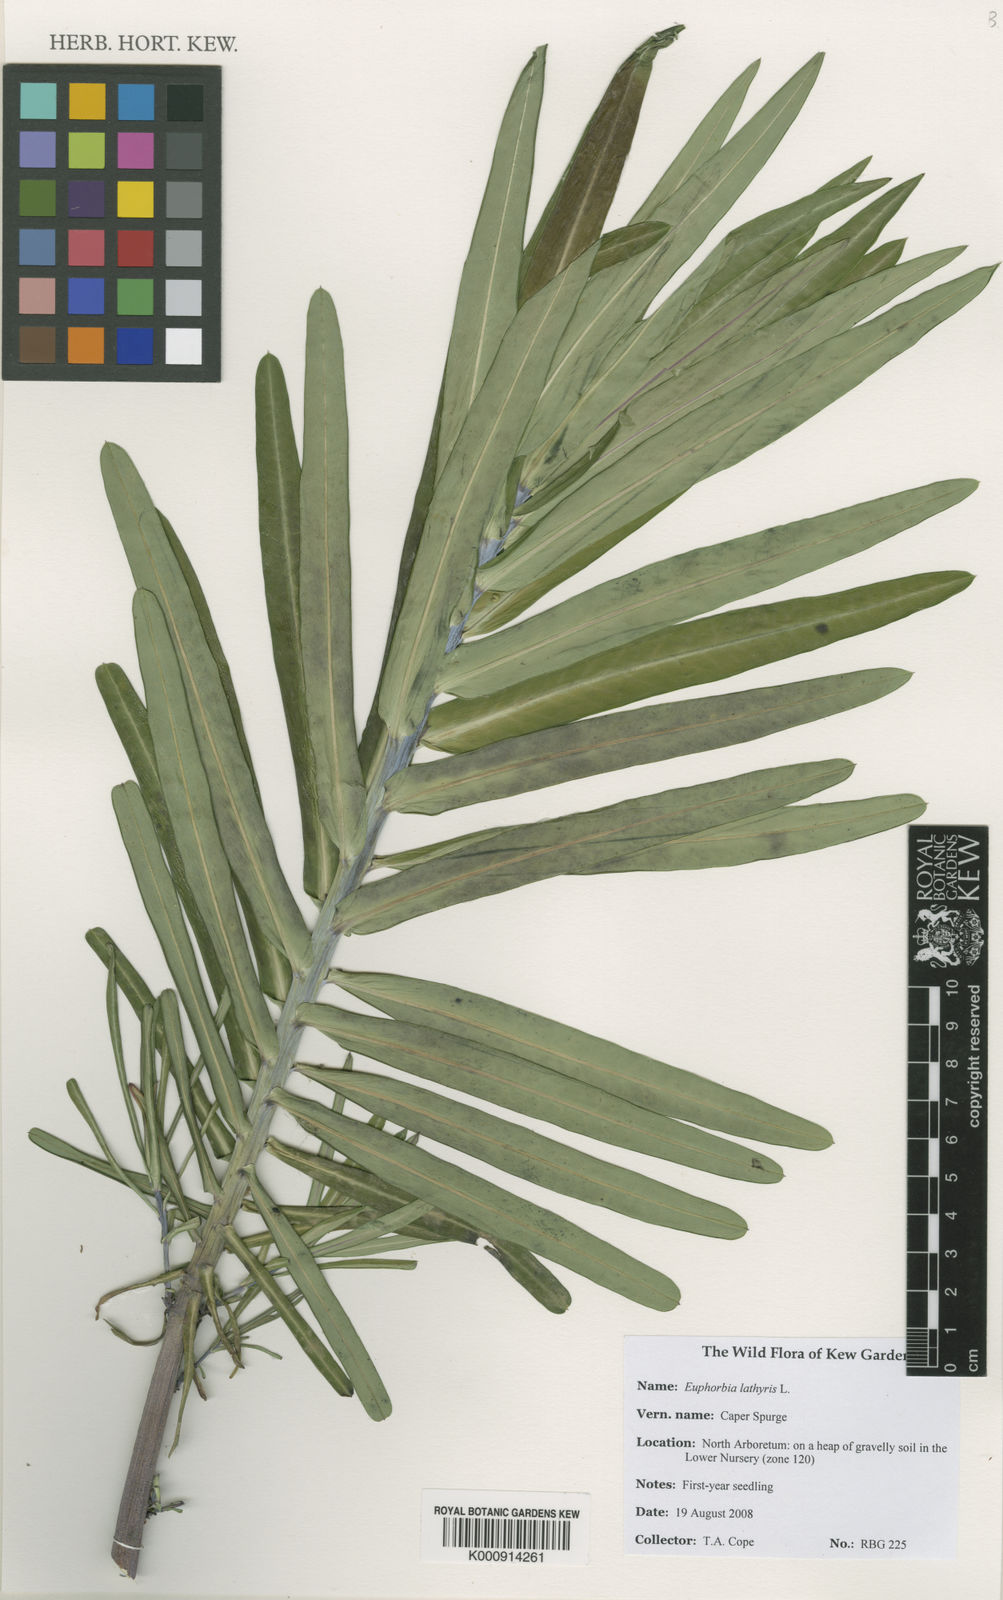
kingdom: Plantae
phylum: Tracheophyta
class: Magnoliopsida
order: Malpighiales
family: Euphorbiaceae
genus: Euphorbia
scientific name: Euphorbia lathyris
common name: Caper spurge
